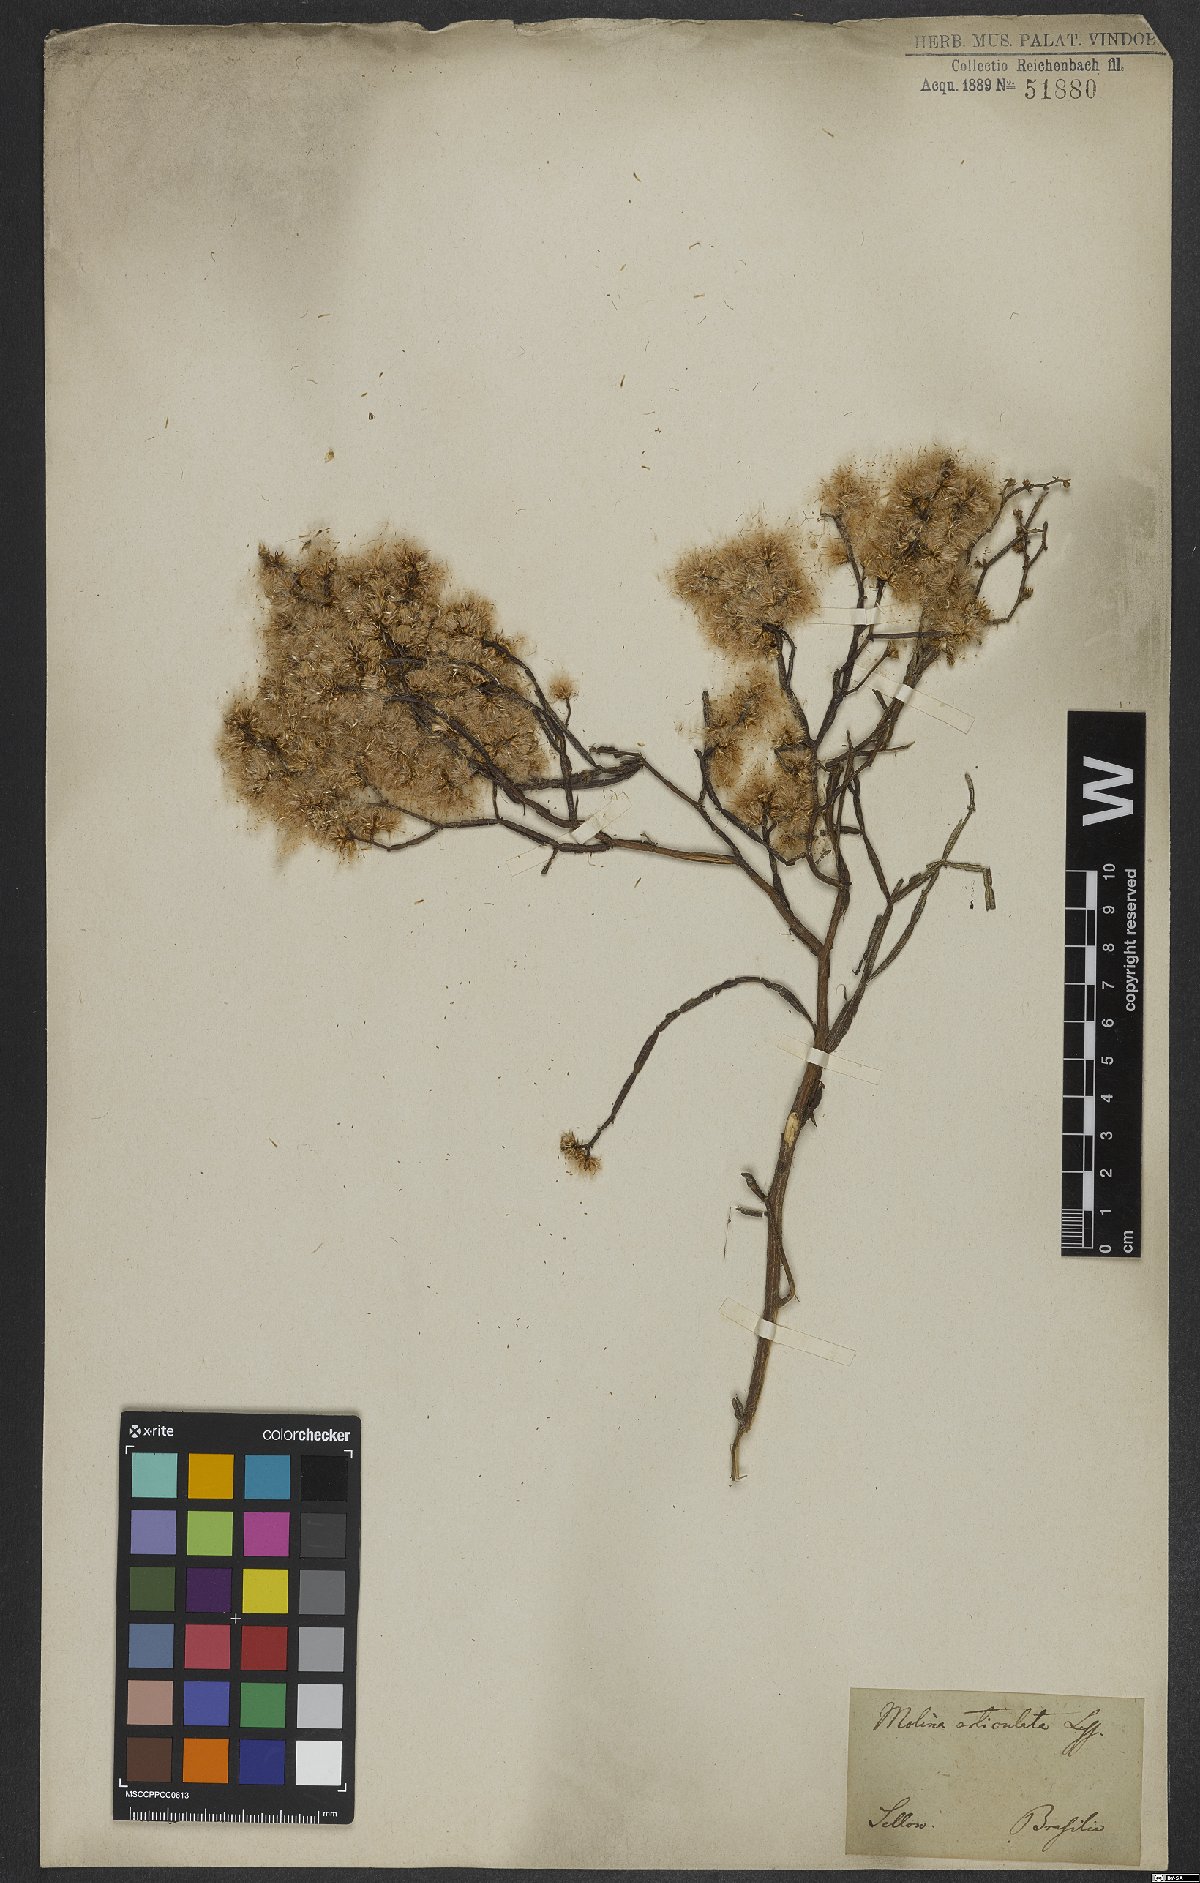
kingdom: Plantae
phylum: Tracheophyta
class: Magnoliopsida
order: Asterales
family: Asteraceae
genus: Baccharis
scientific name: Baccharis articulata
